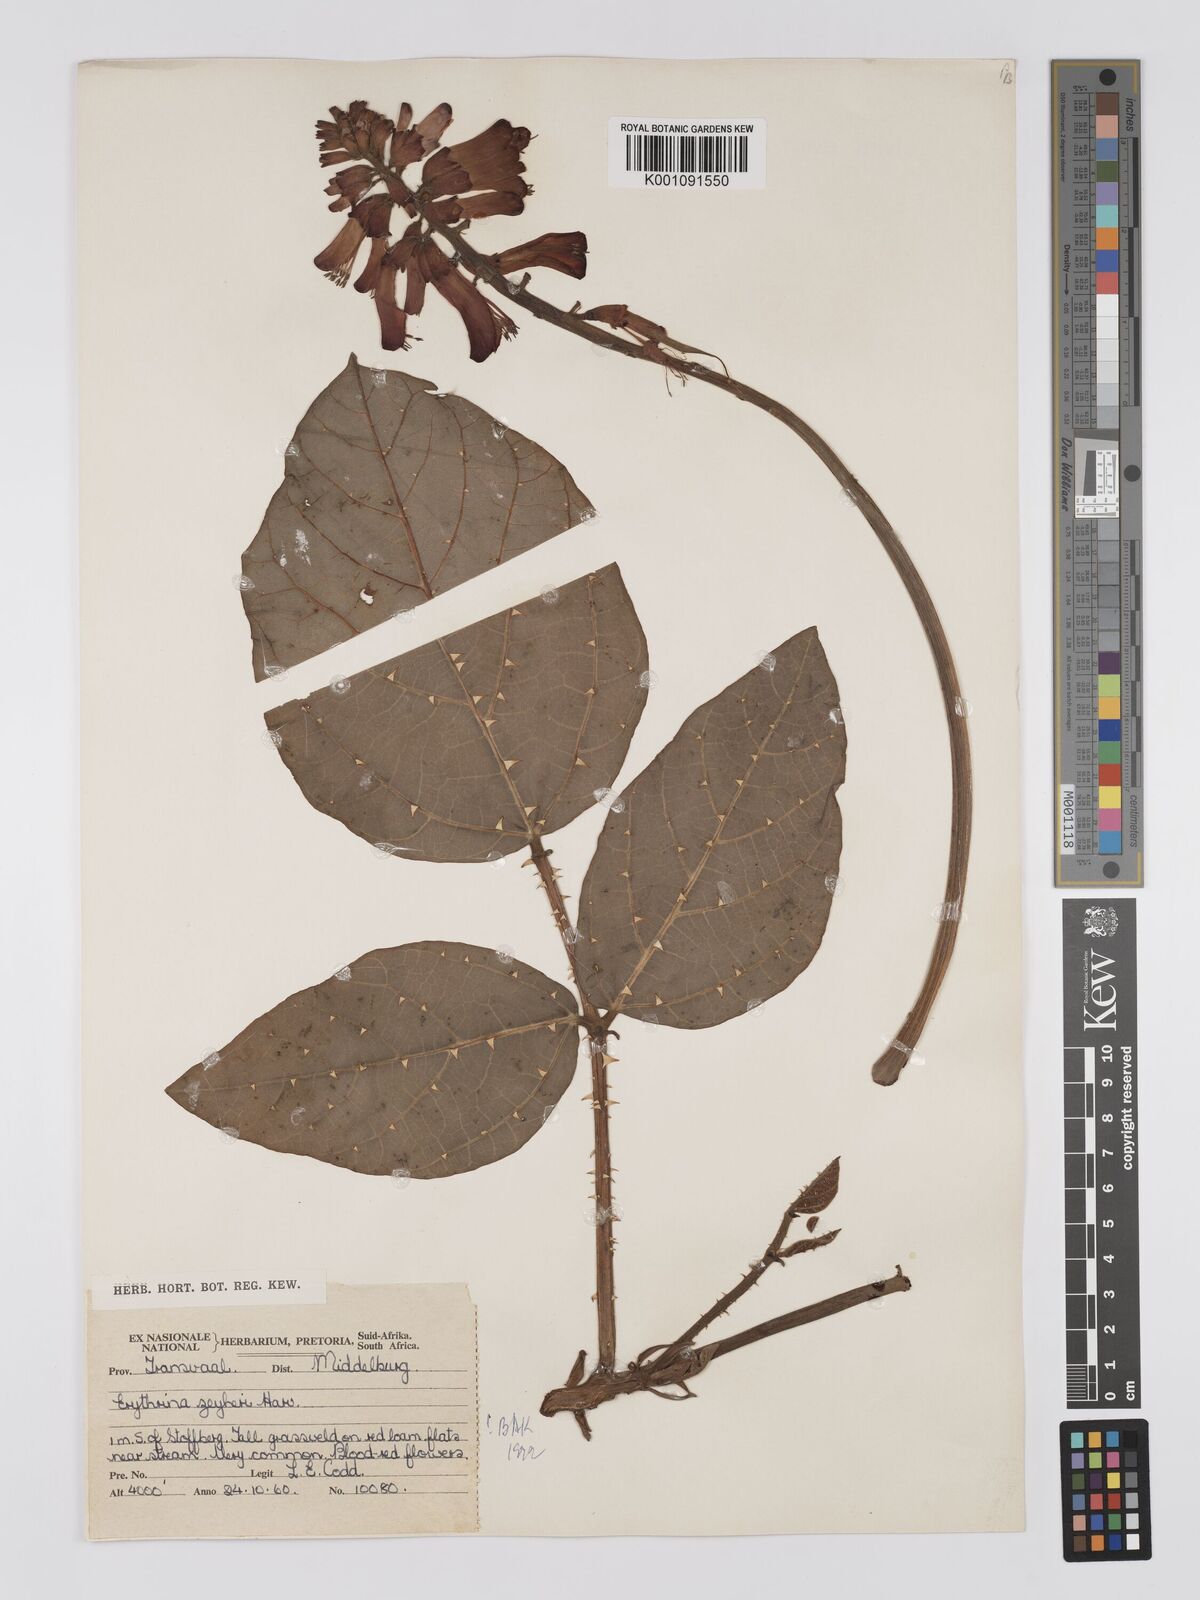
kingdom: Plantae
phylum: Tracheophyta
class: Magnoliopsida
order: Fabales
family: Fabaceae
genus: Erythrina
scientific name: Erythrina zeyheri
